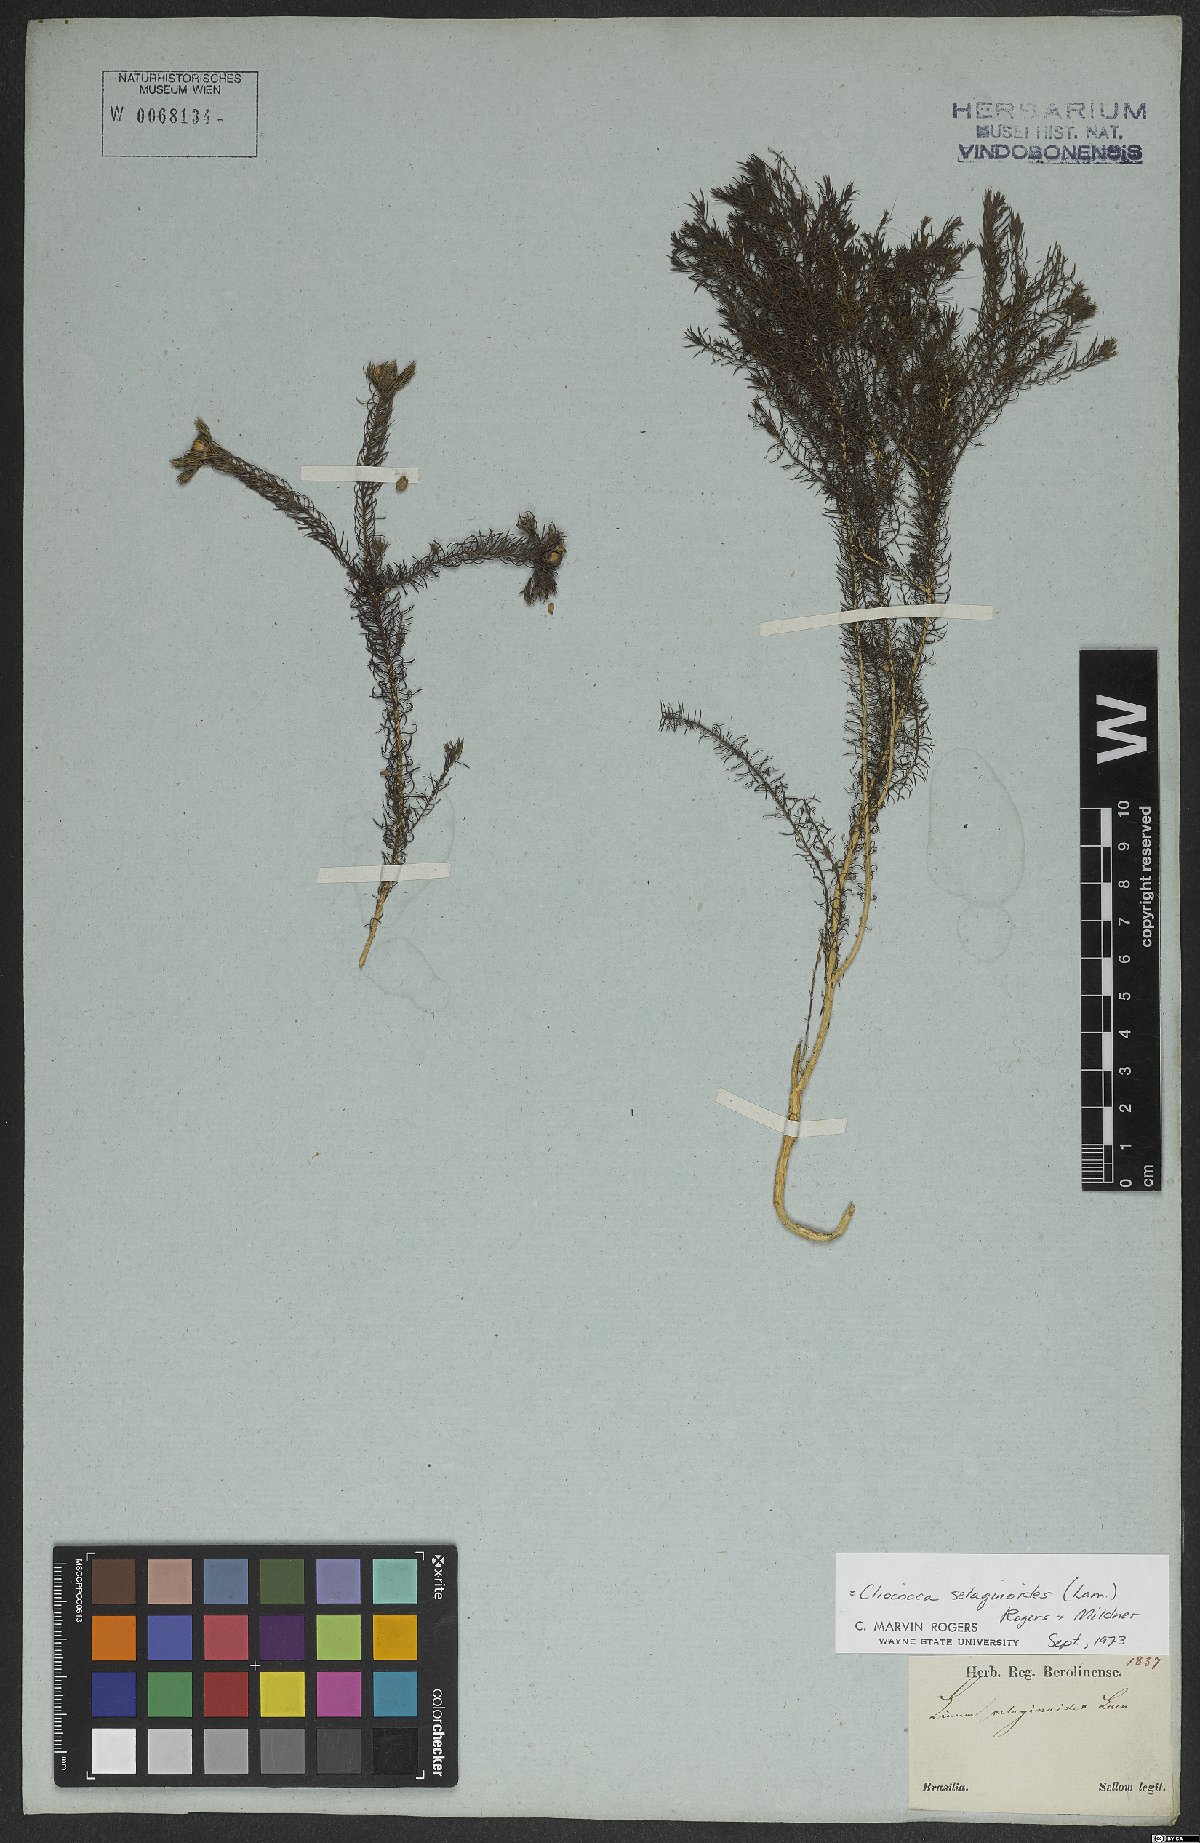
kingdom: Plantae
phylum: Tracheophyta
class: Magnoliopsida
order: Malpighiales
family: Linaceae
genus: Cliococca
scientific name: Cliococca selaginoides
